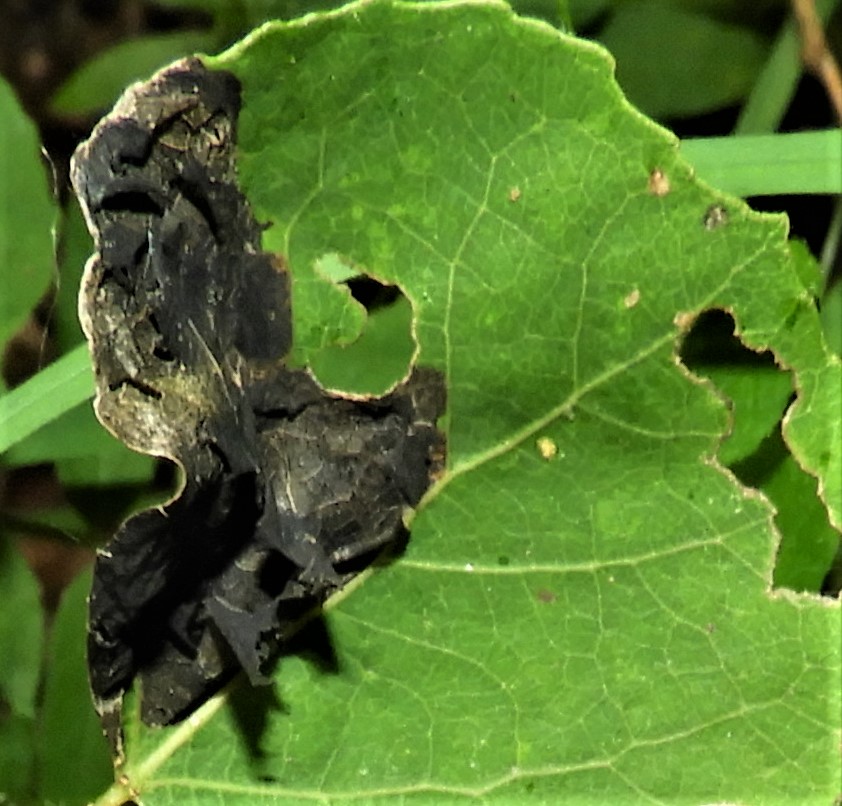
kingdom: Fungi
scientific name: Fungi
